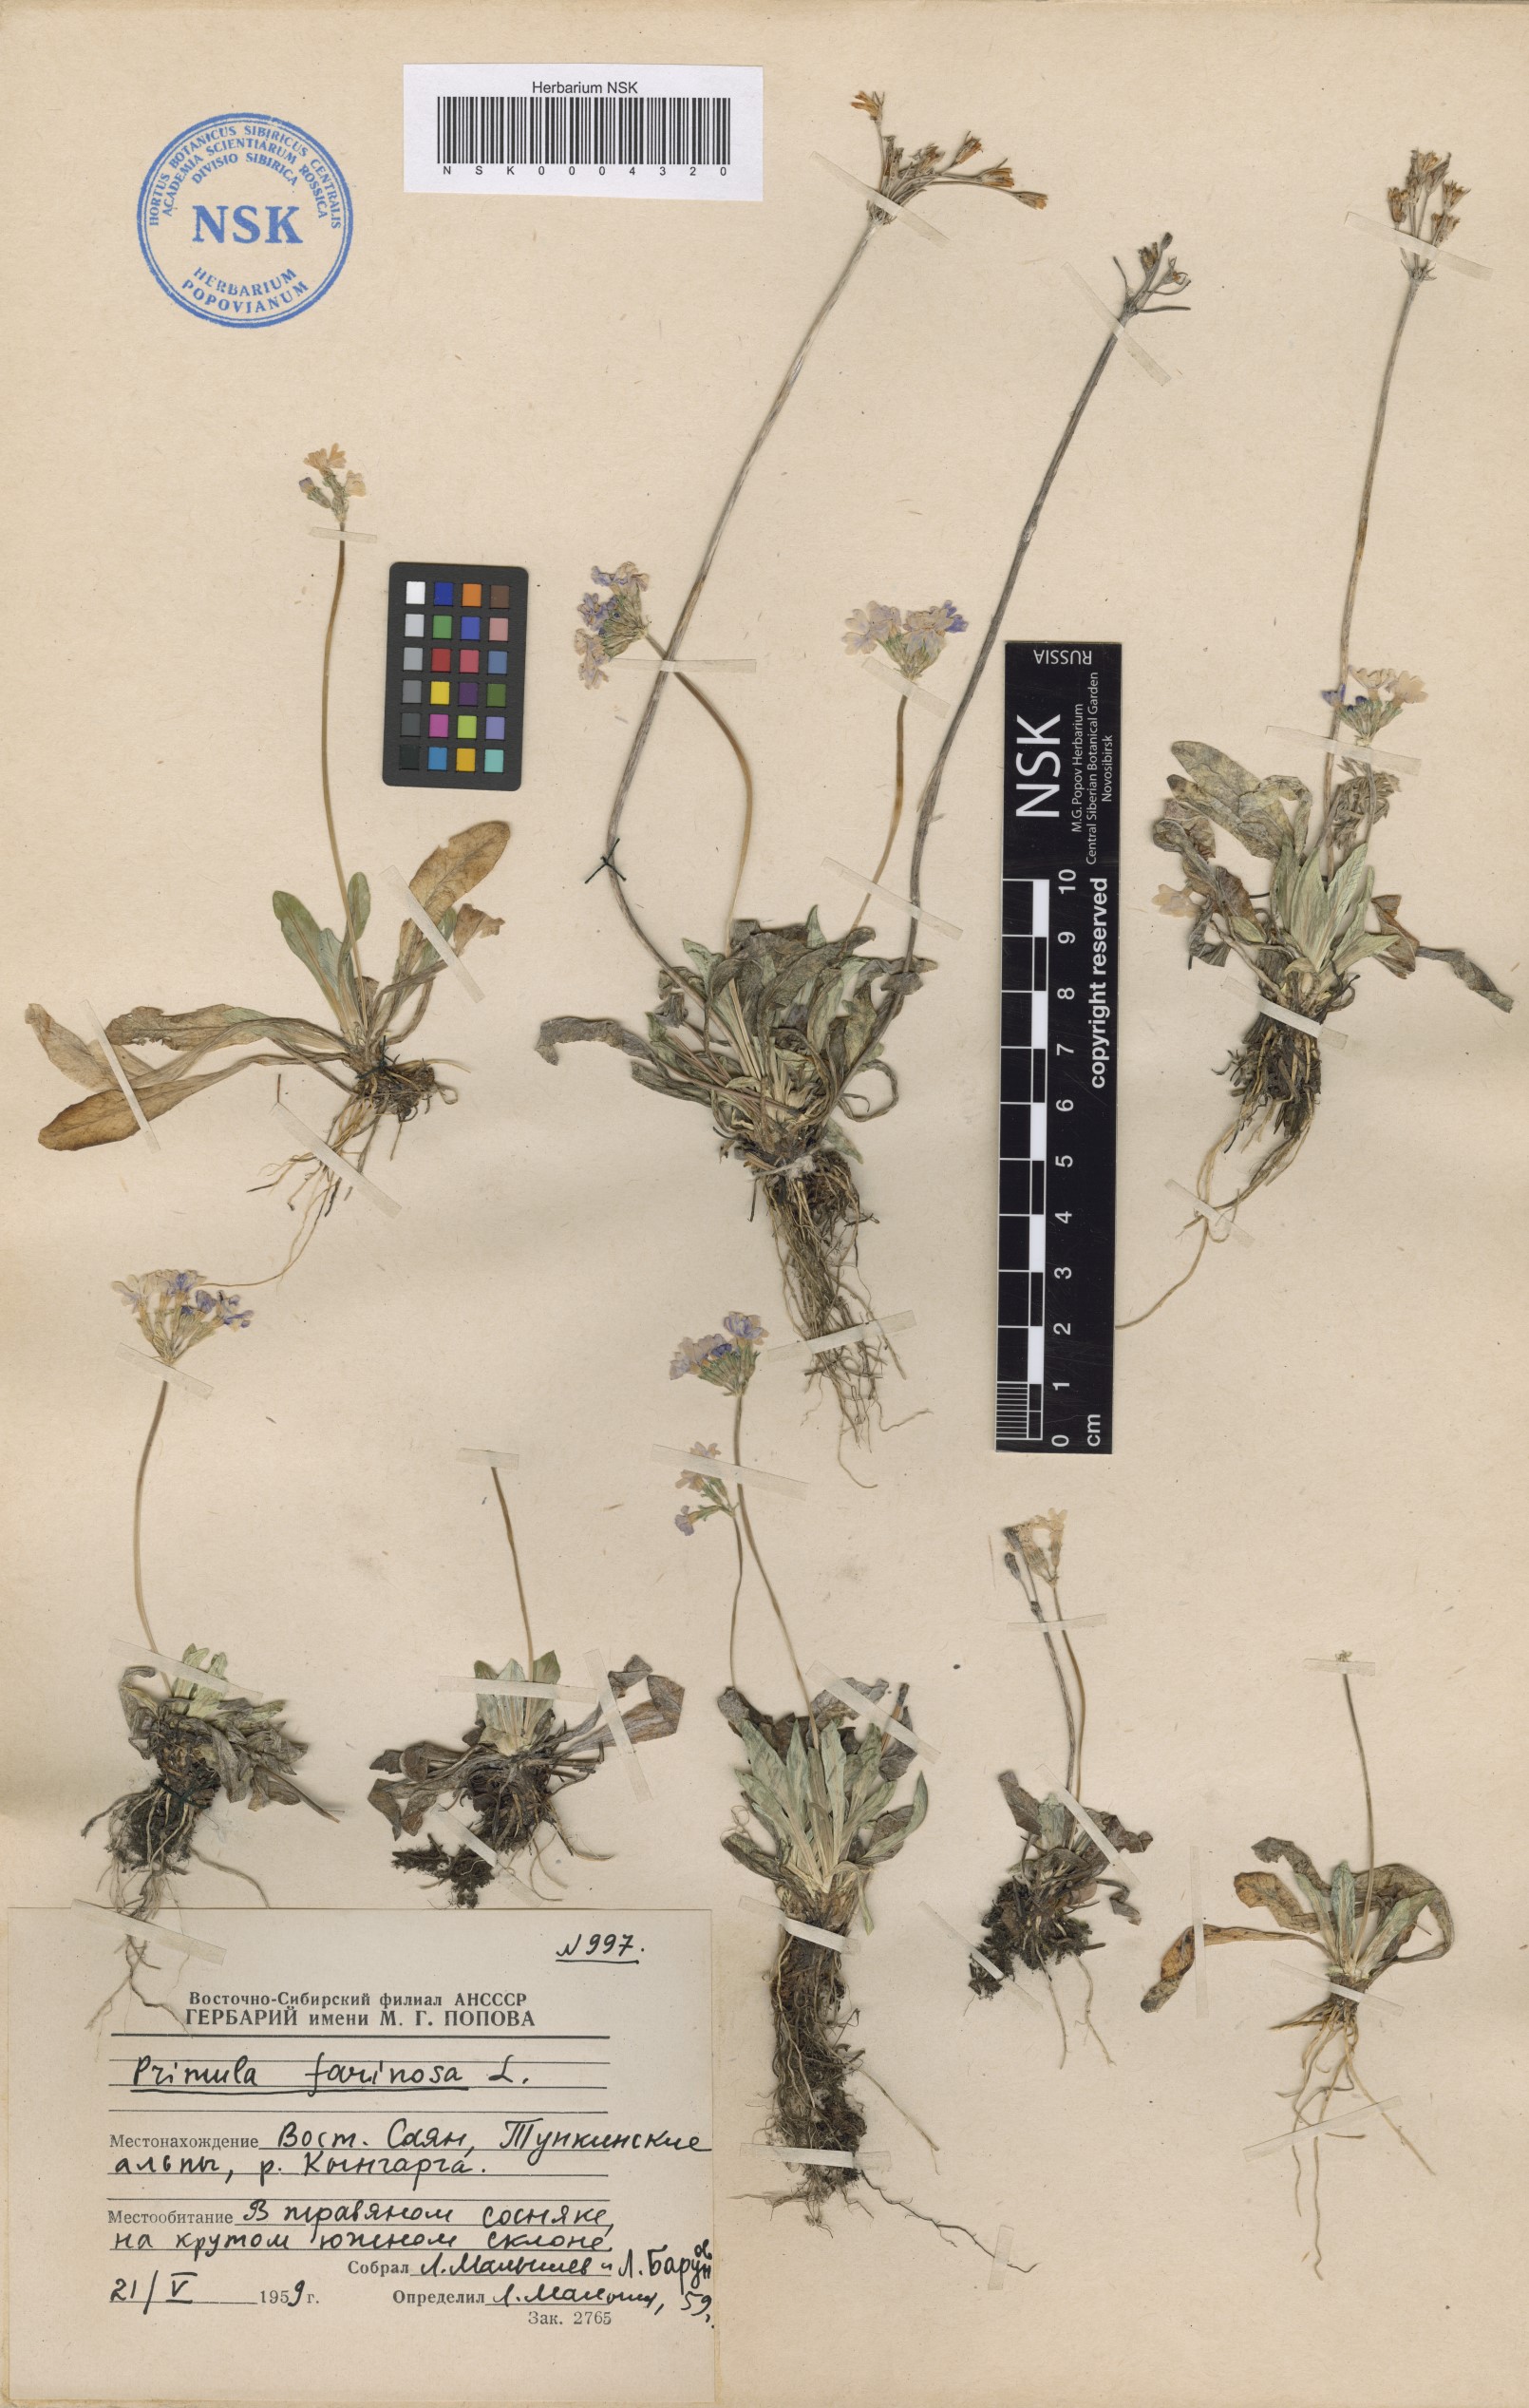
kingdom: Plantae
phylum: Tracheophyta
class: Magnoliopsida
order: Ericales
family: Primulaceae
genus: Primula
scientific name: Primula farinosa
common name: Bird's-eye primrose
